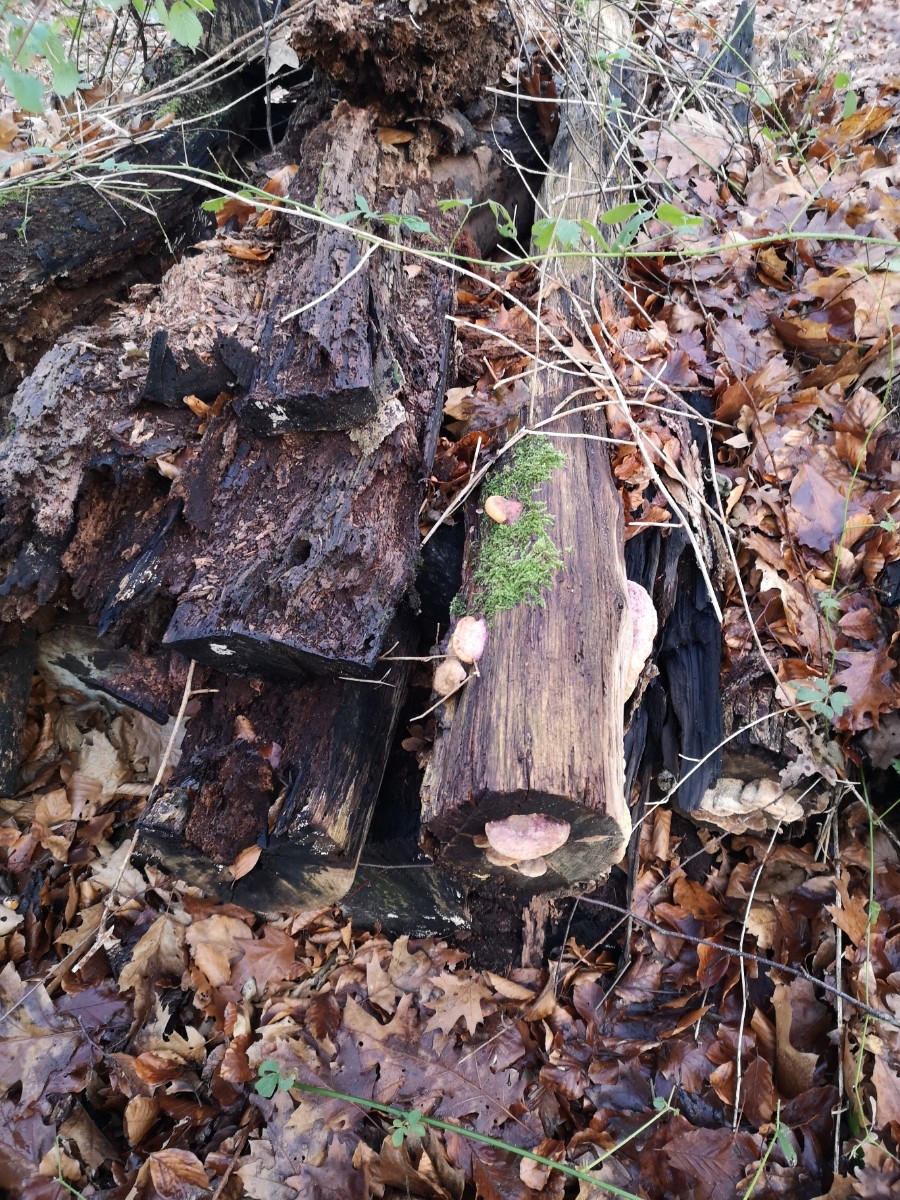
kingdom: Fungi
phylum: Basidiomycota
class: Agaricomycetes
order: Polyporales
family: Fomitopsidaceae
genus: Daedalea
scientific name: Daedalea quercina
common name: ege-labyrintsvamp
